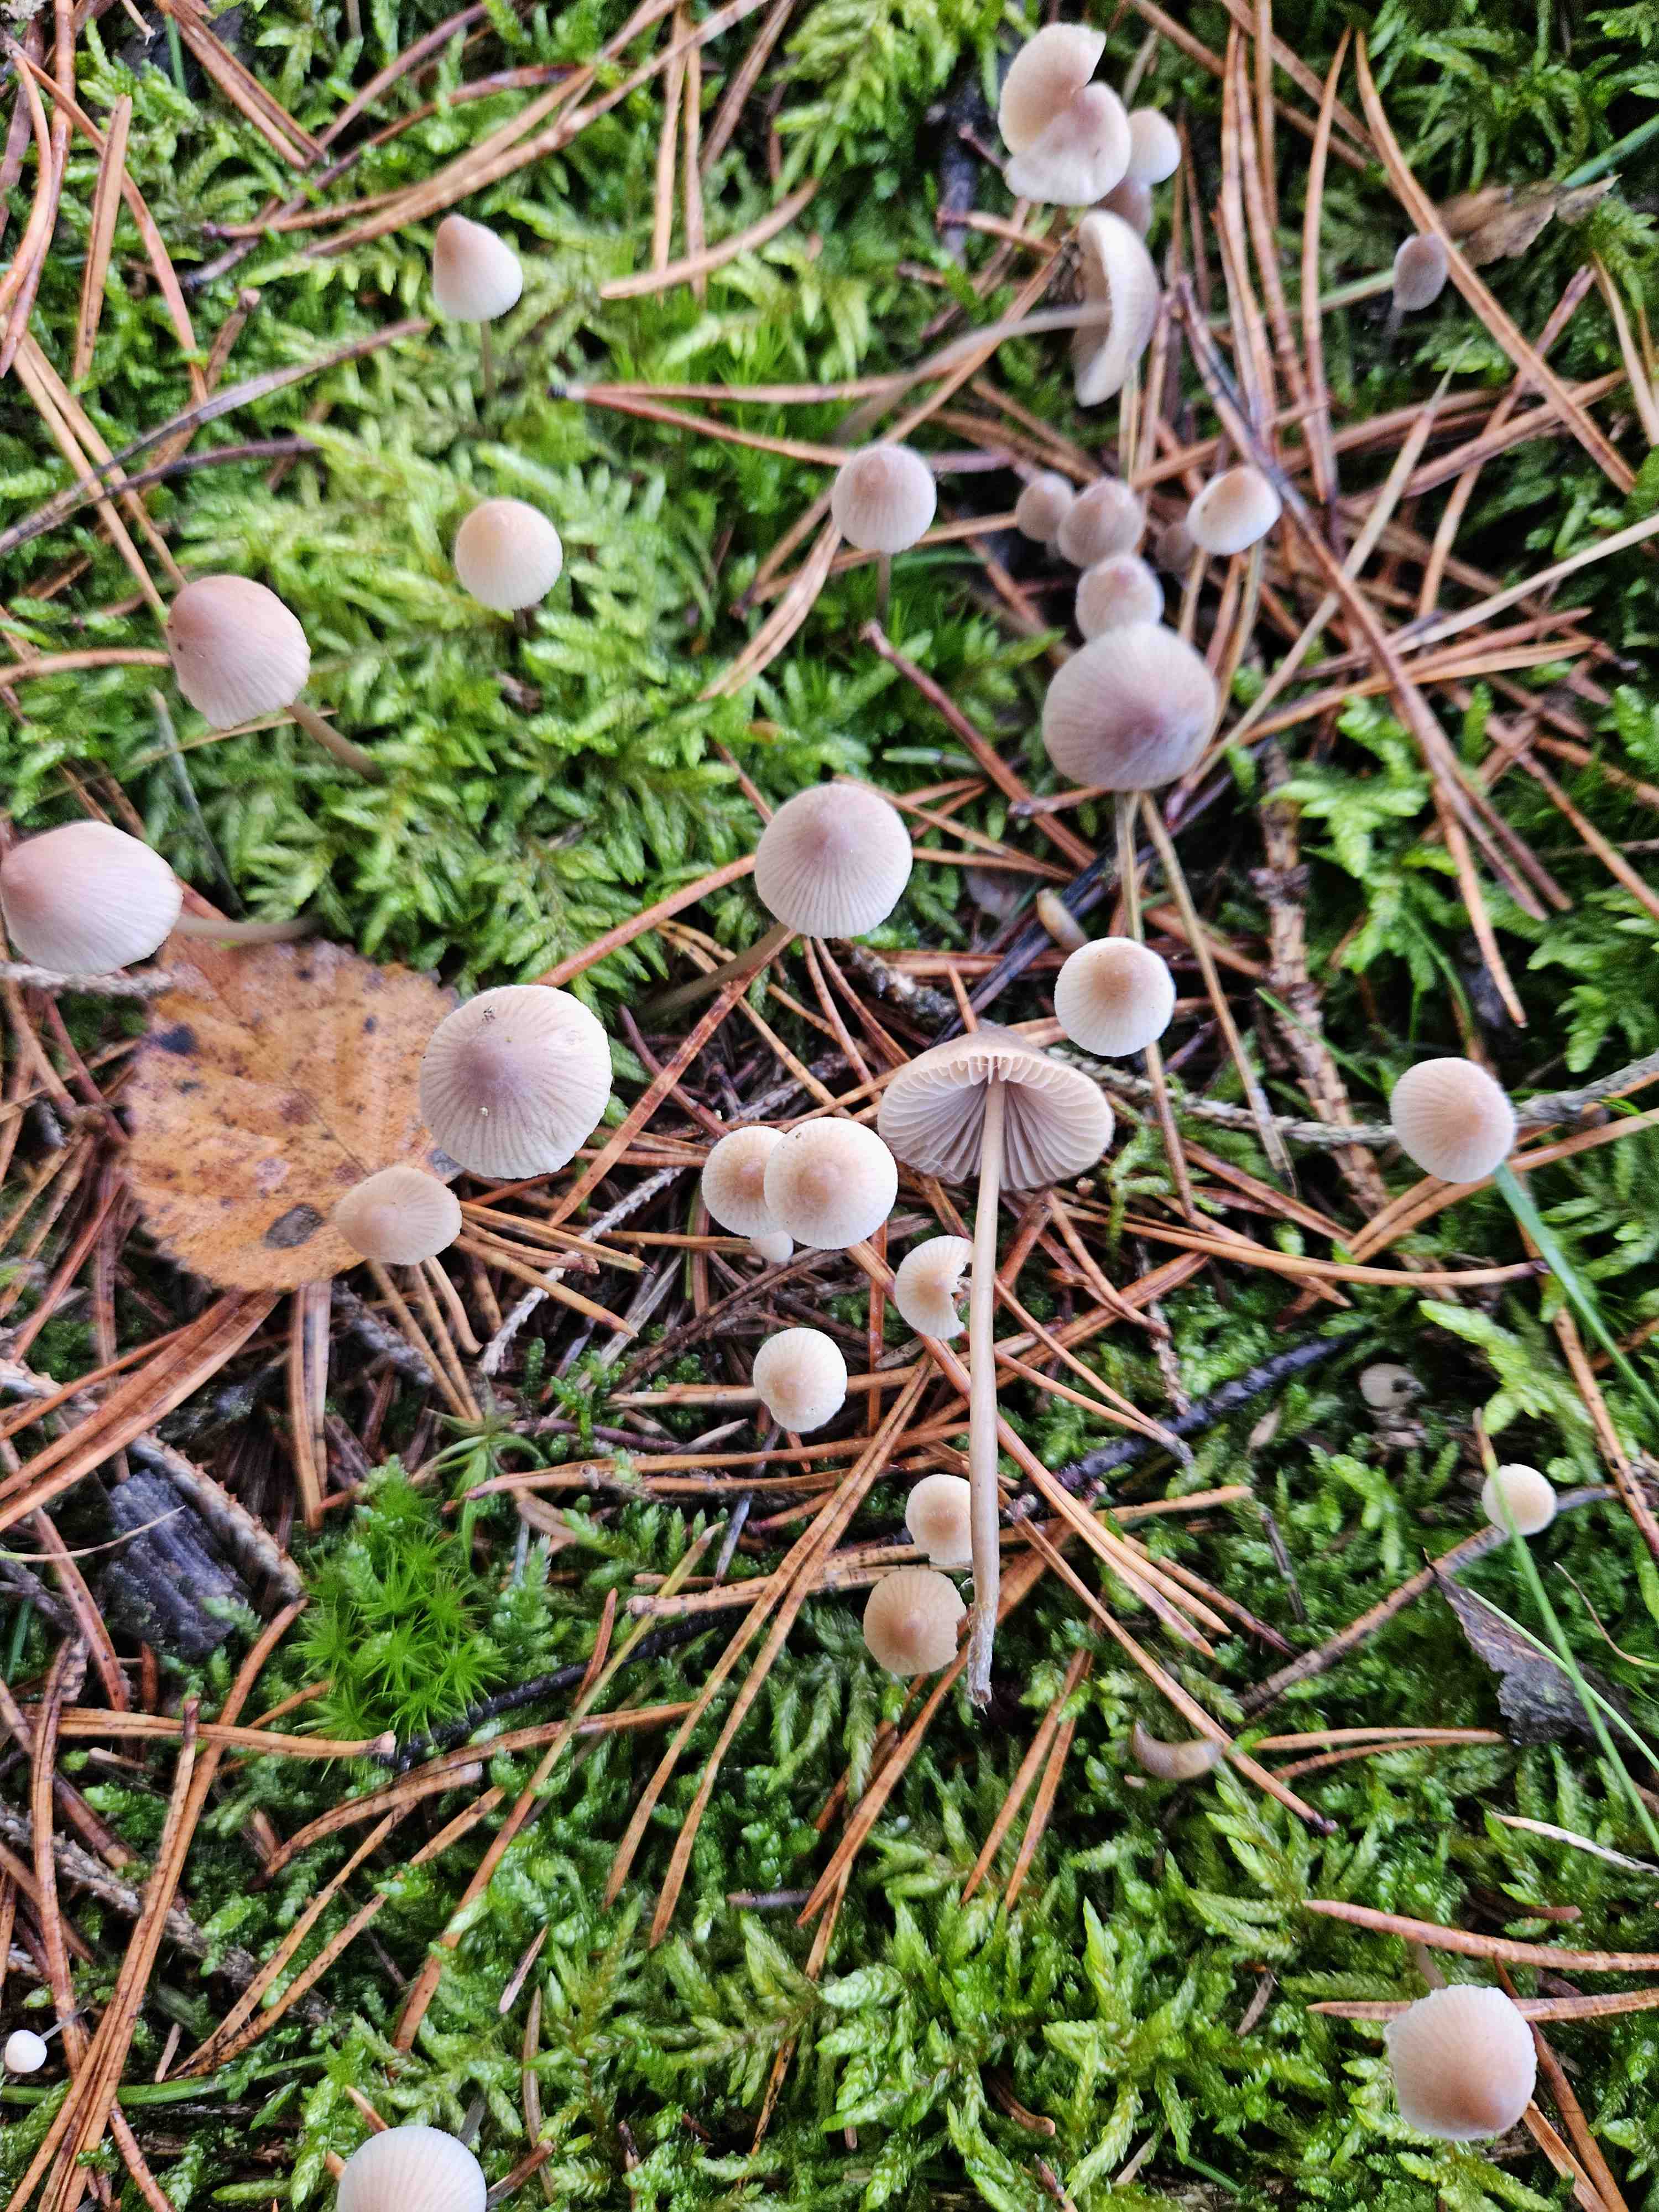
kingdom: Fungi
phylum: Basidiomycota
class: Agaricomycetes
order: Agaricales
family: Mycenaceae
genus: Mycena
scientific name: Mycena metata
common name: rødlig huesvamp
